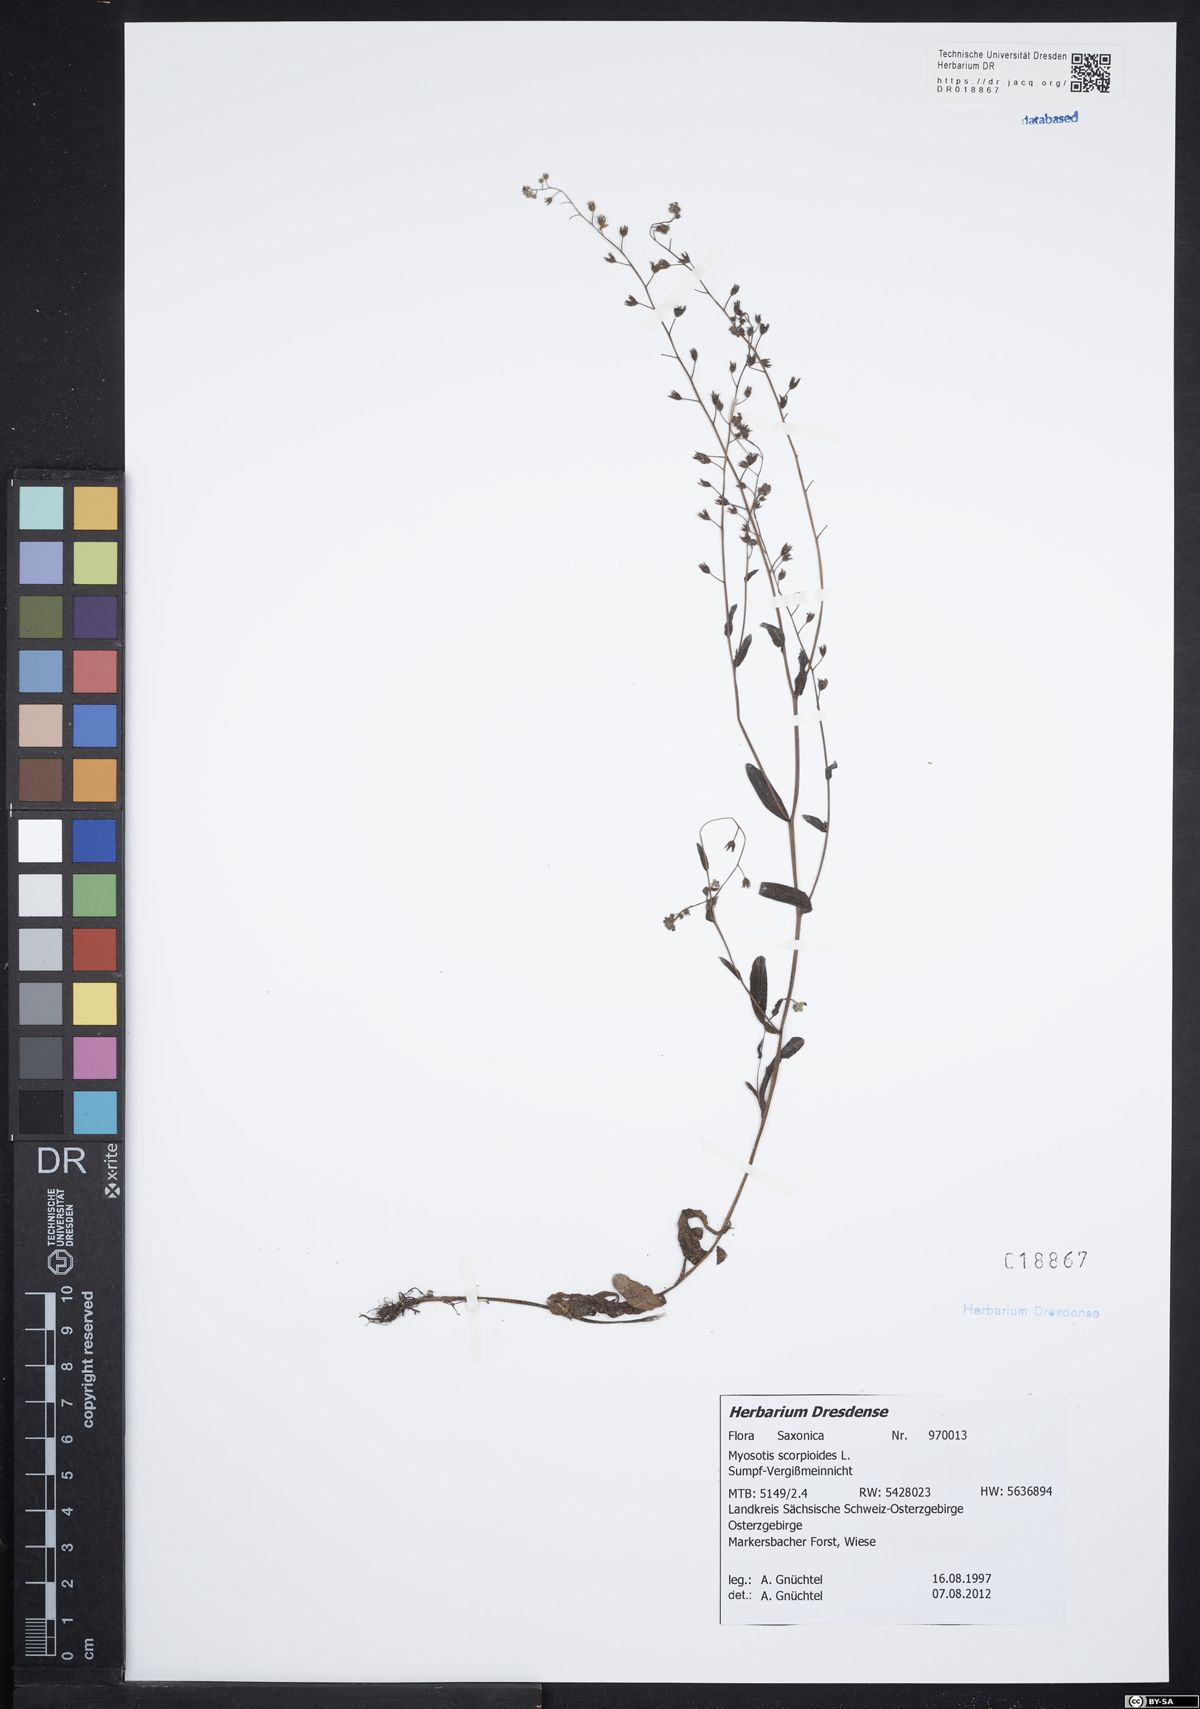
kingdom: Plantae
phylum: Tracheophyta
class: Magnoliopsida
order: Boraginales
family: Boraginaceae
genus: Myosotis
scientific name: Myosotis scorpioides
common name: Water forget-me-not
